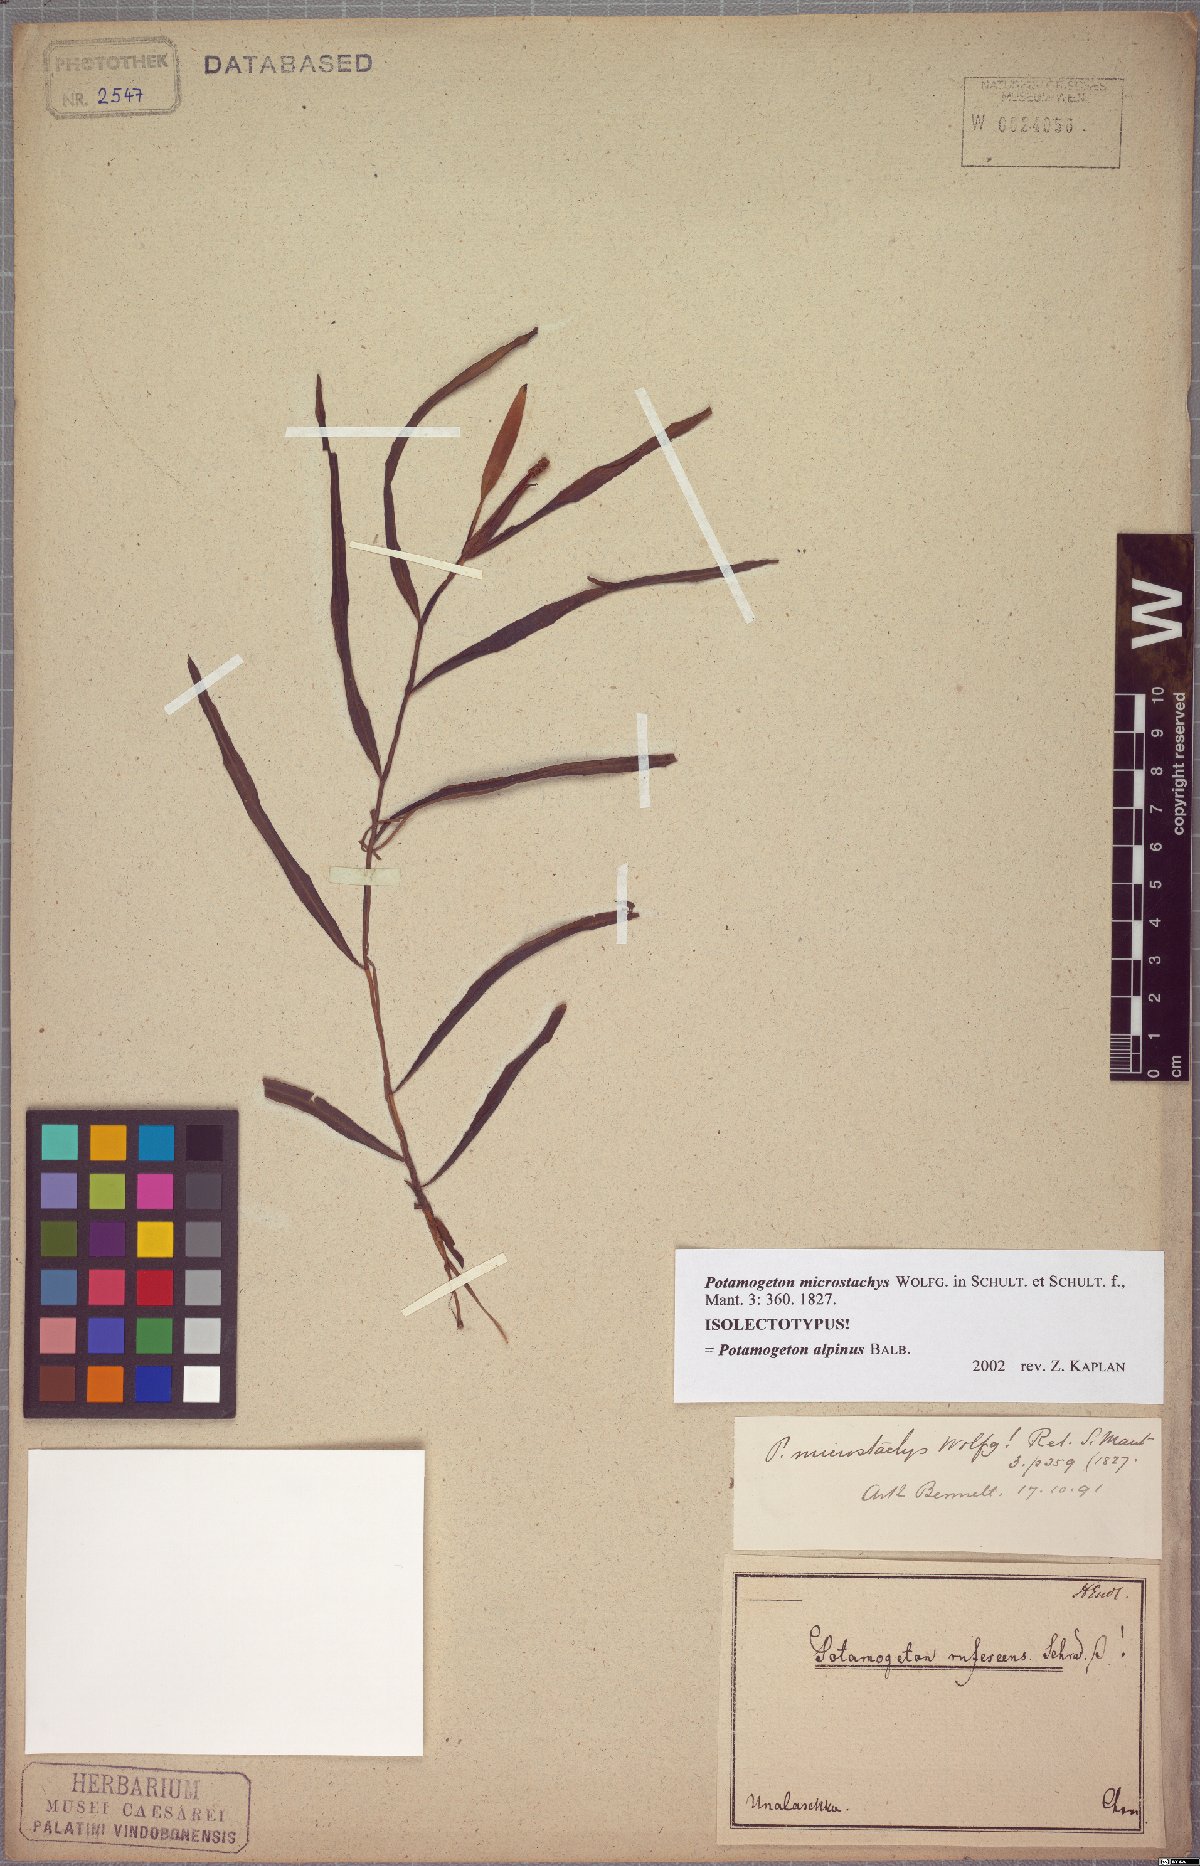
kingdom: Plantae
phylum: Tracheophyta
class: Liliopsida
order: Alismatales
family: Potamogetonaceae
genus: Potamogeton
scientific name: Potamogeton alpinus
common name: Red pondweed
